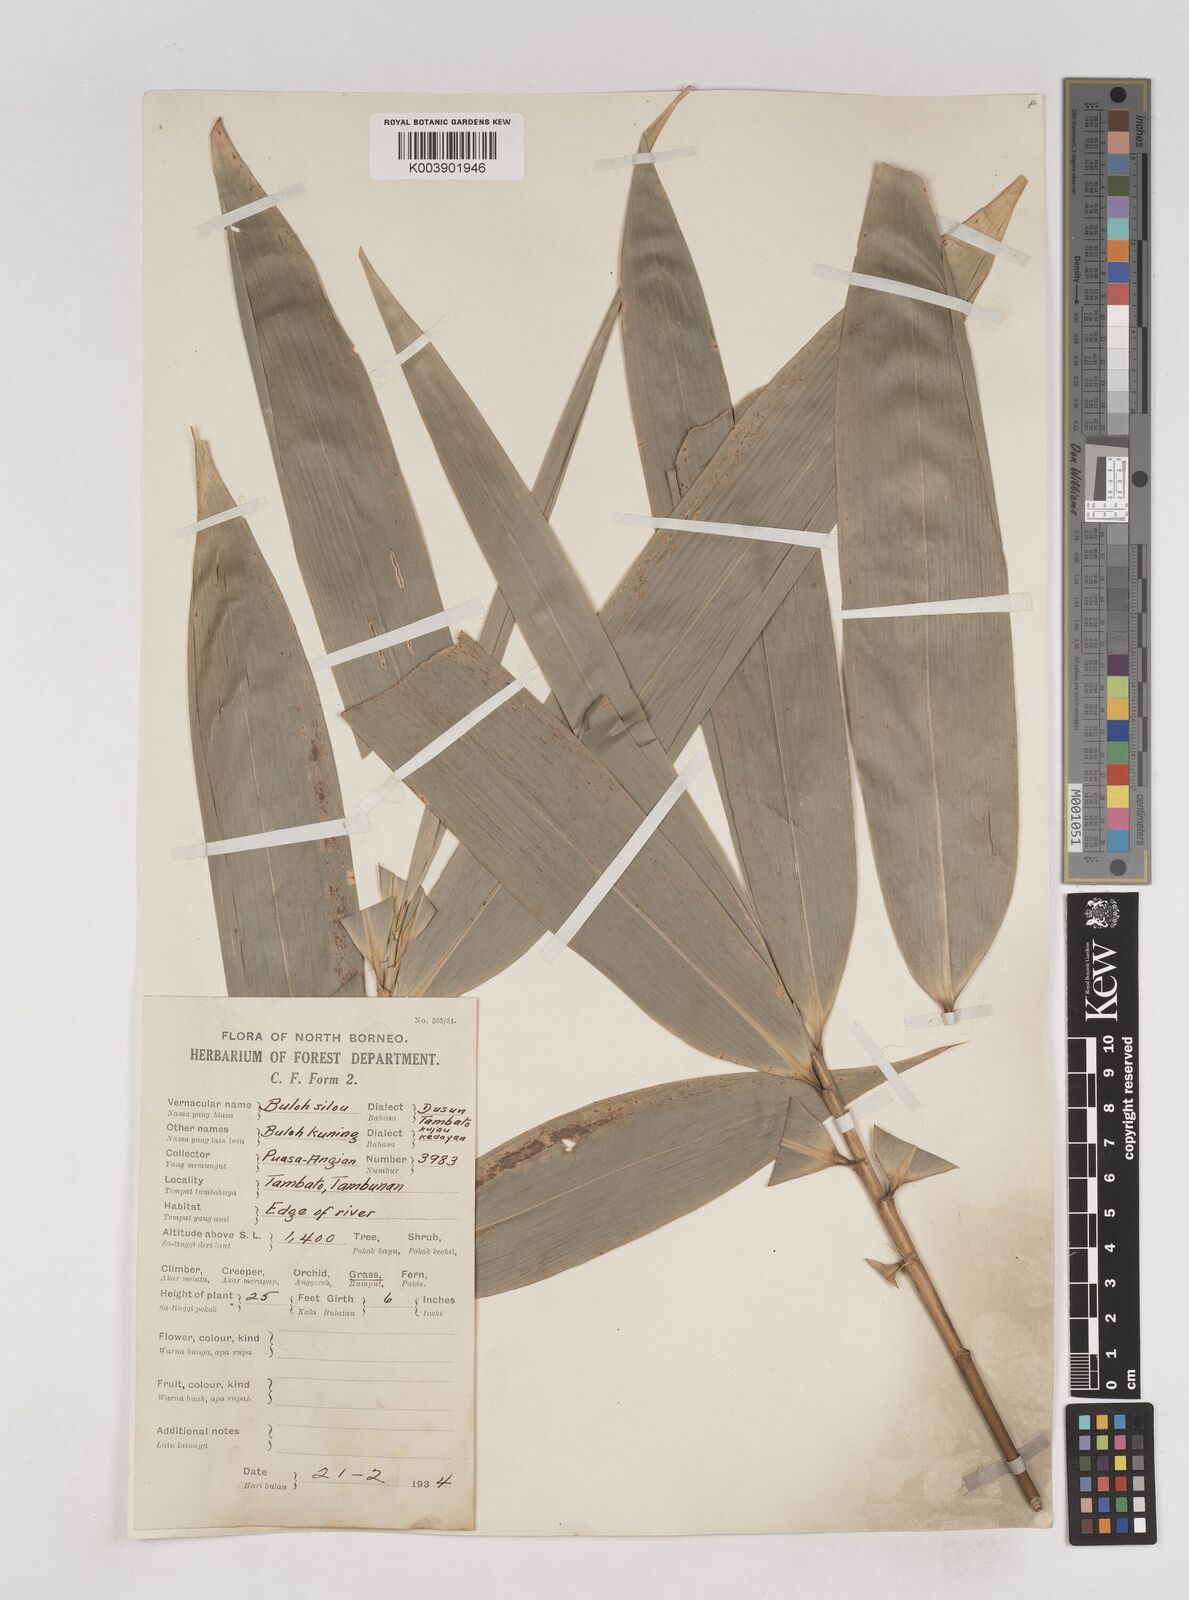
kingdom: Plantae
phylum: Tracheophyta
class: Liliopsida
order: Poales
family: Poaceae
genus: Schizostachyum
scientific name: Schizostachyum brachycladum
